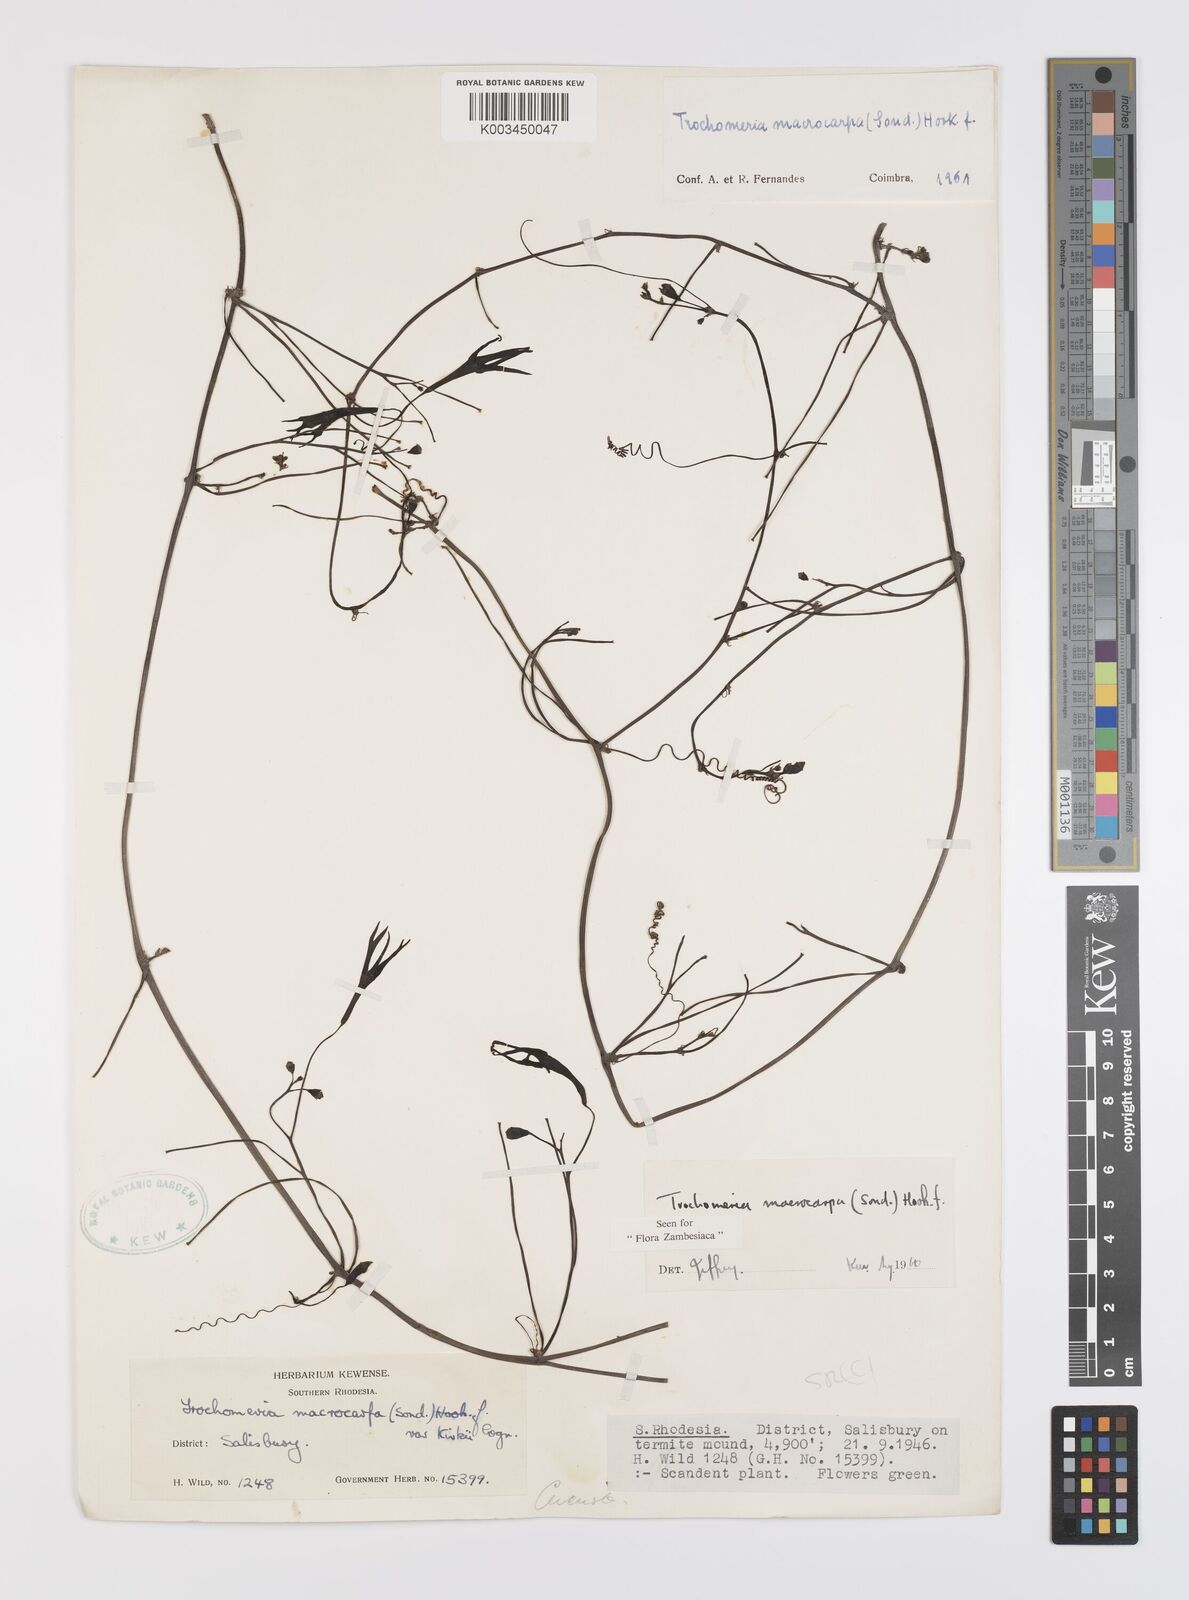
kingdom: Plantae
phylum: Tracheophyta
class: Magnoliopsida
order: Cucurbitales
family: Cucurbitaceae
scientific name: Cucurbitaceae
